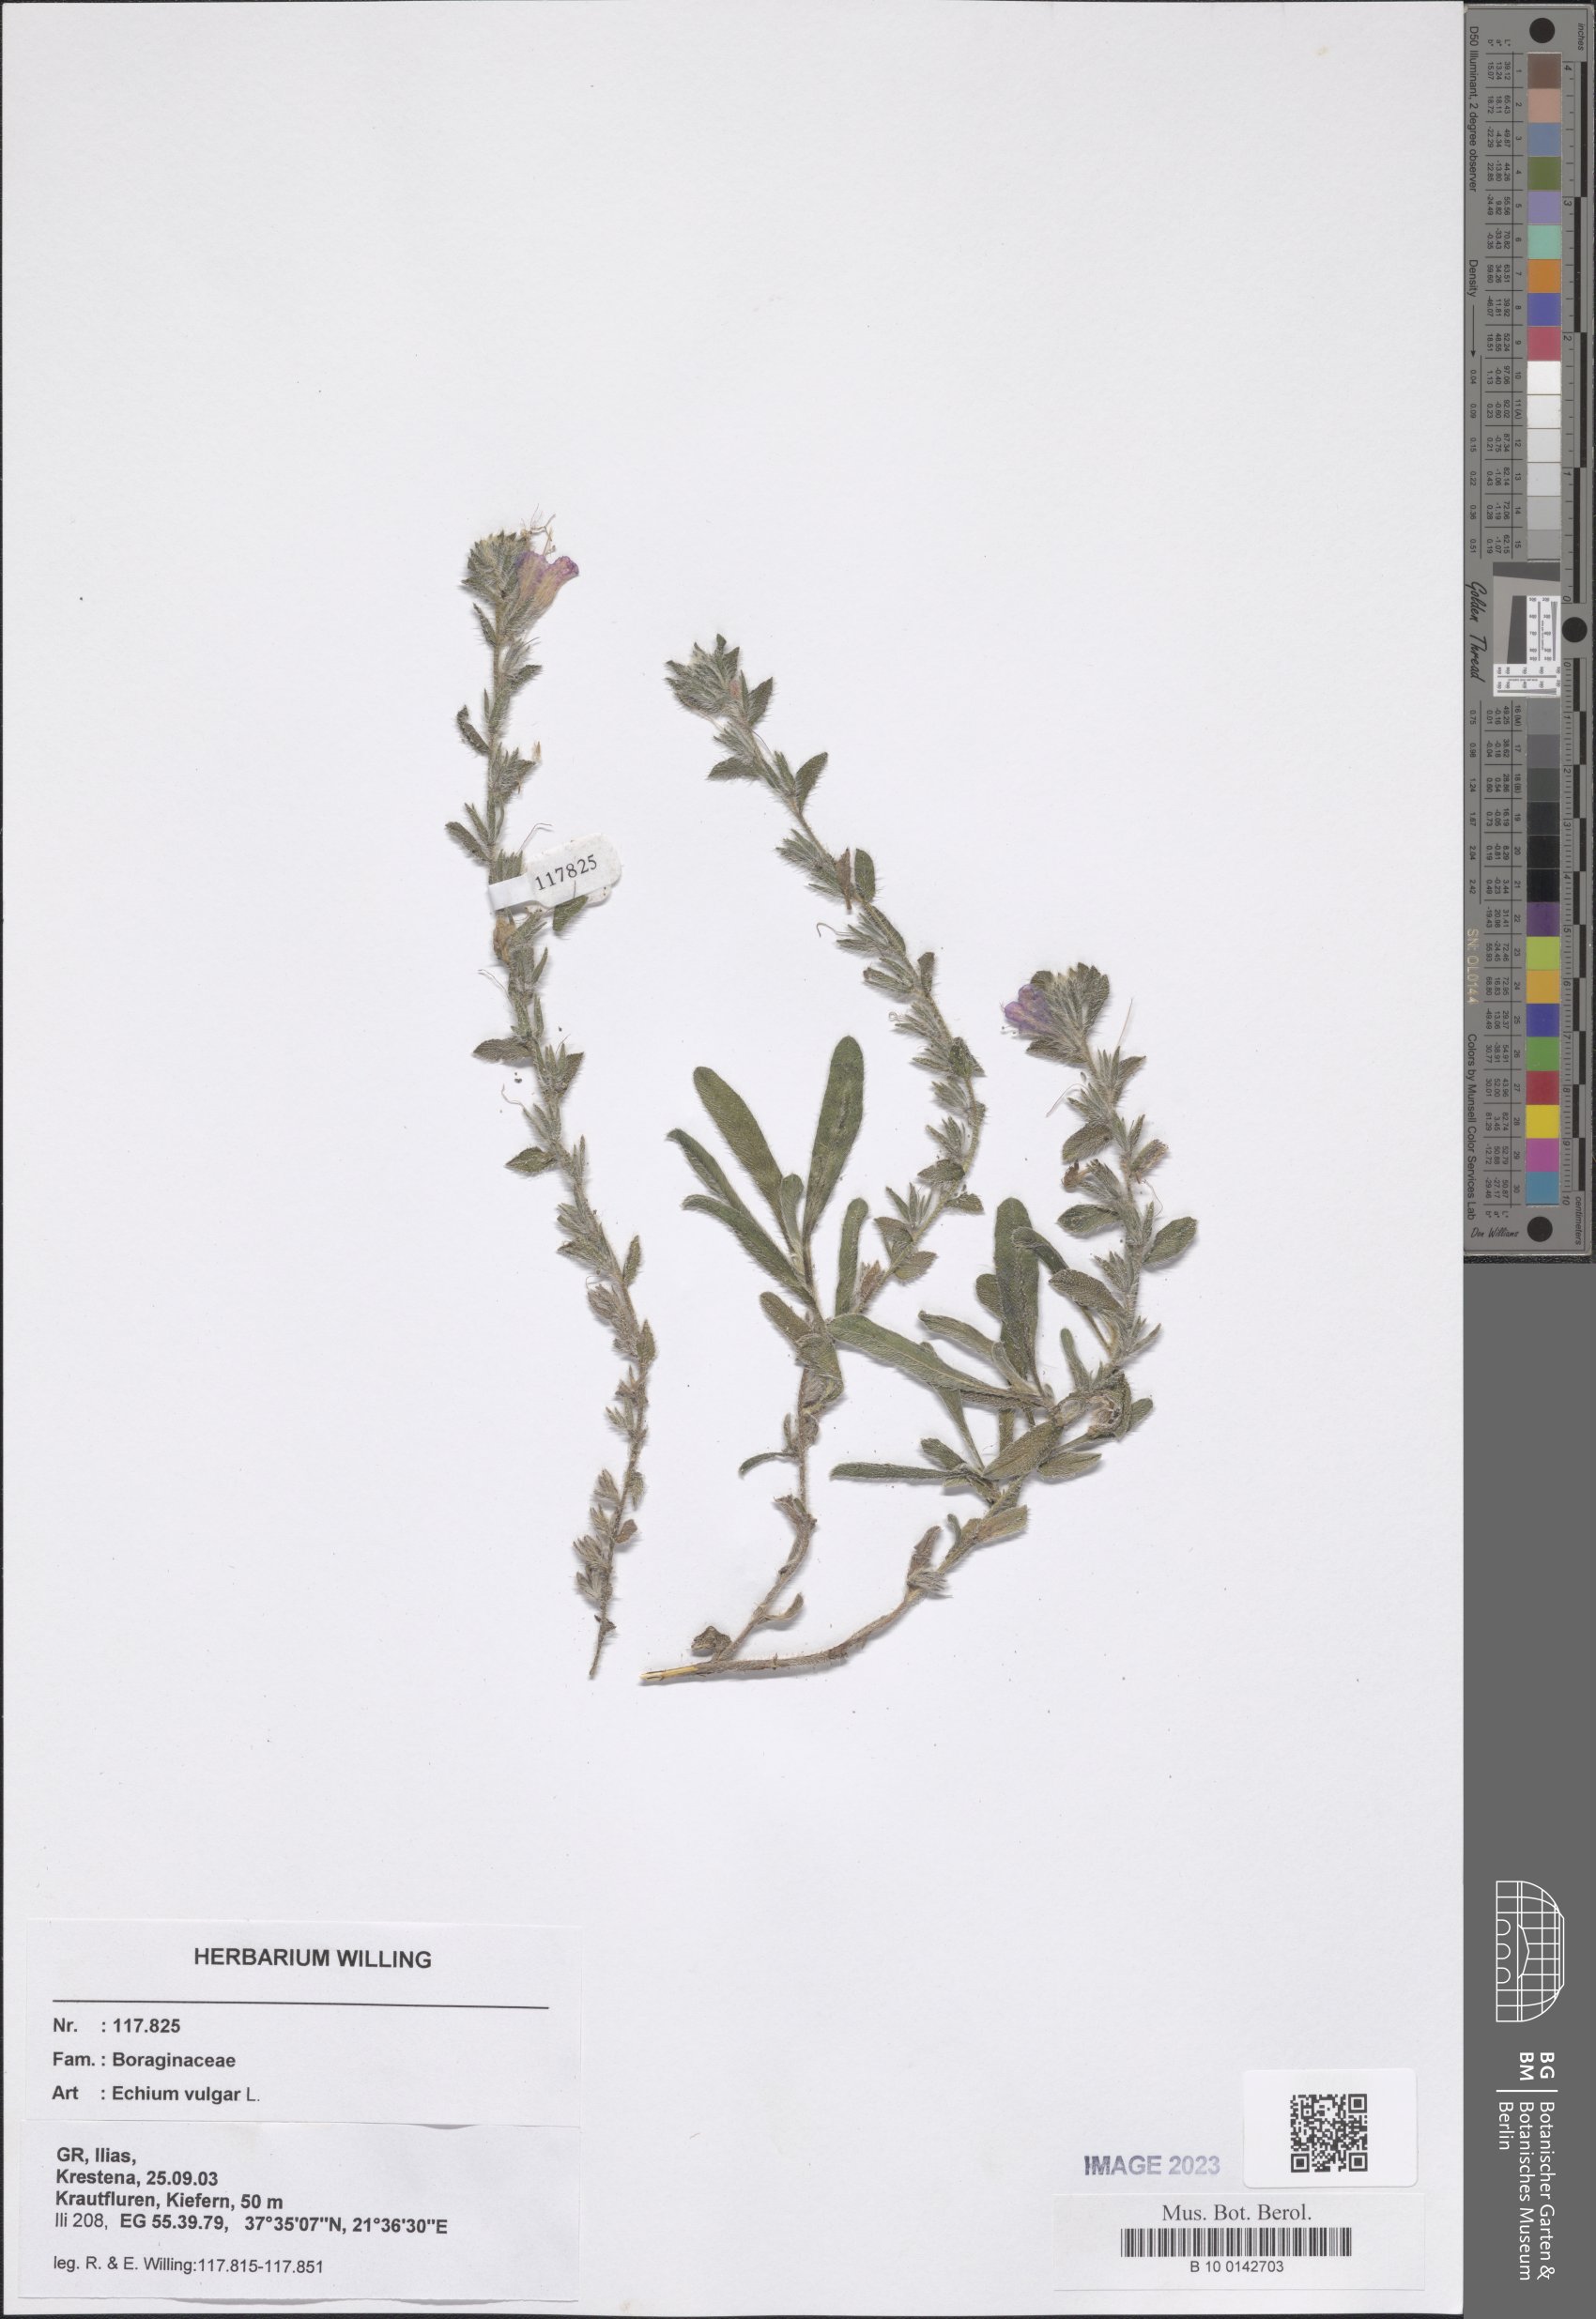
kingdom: Plantae
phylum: Tracheophyta
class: Magnoliopsida
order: Boraginales
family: Boraginaceae
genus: Echium
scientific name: Echium vulgare
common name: Common viper's bugloss
